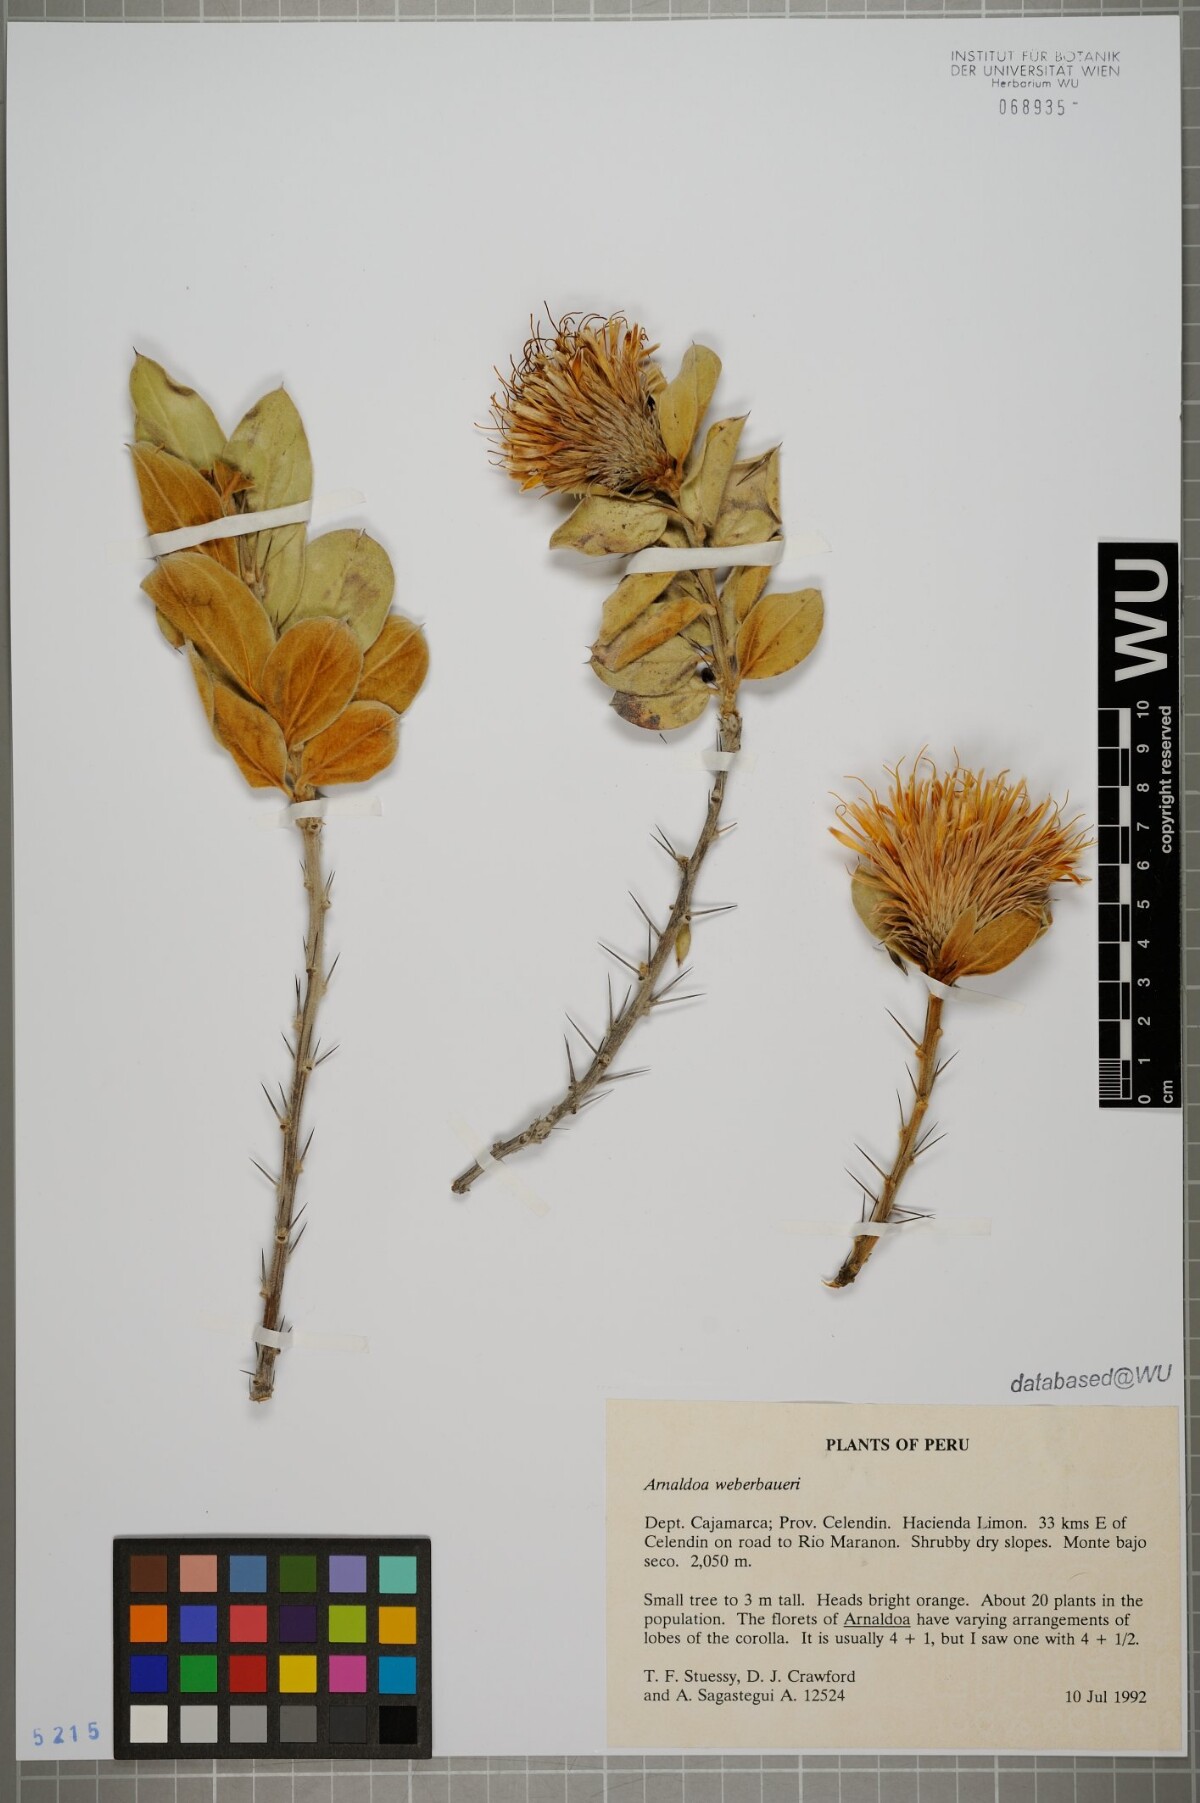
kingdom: Plantae
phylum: Tracheophyta
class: Magnoliopsida
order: Asterales
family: Asteraceae
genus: Arnaldoa
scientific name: Arnaldoa weberbaueri
